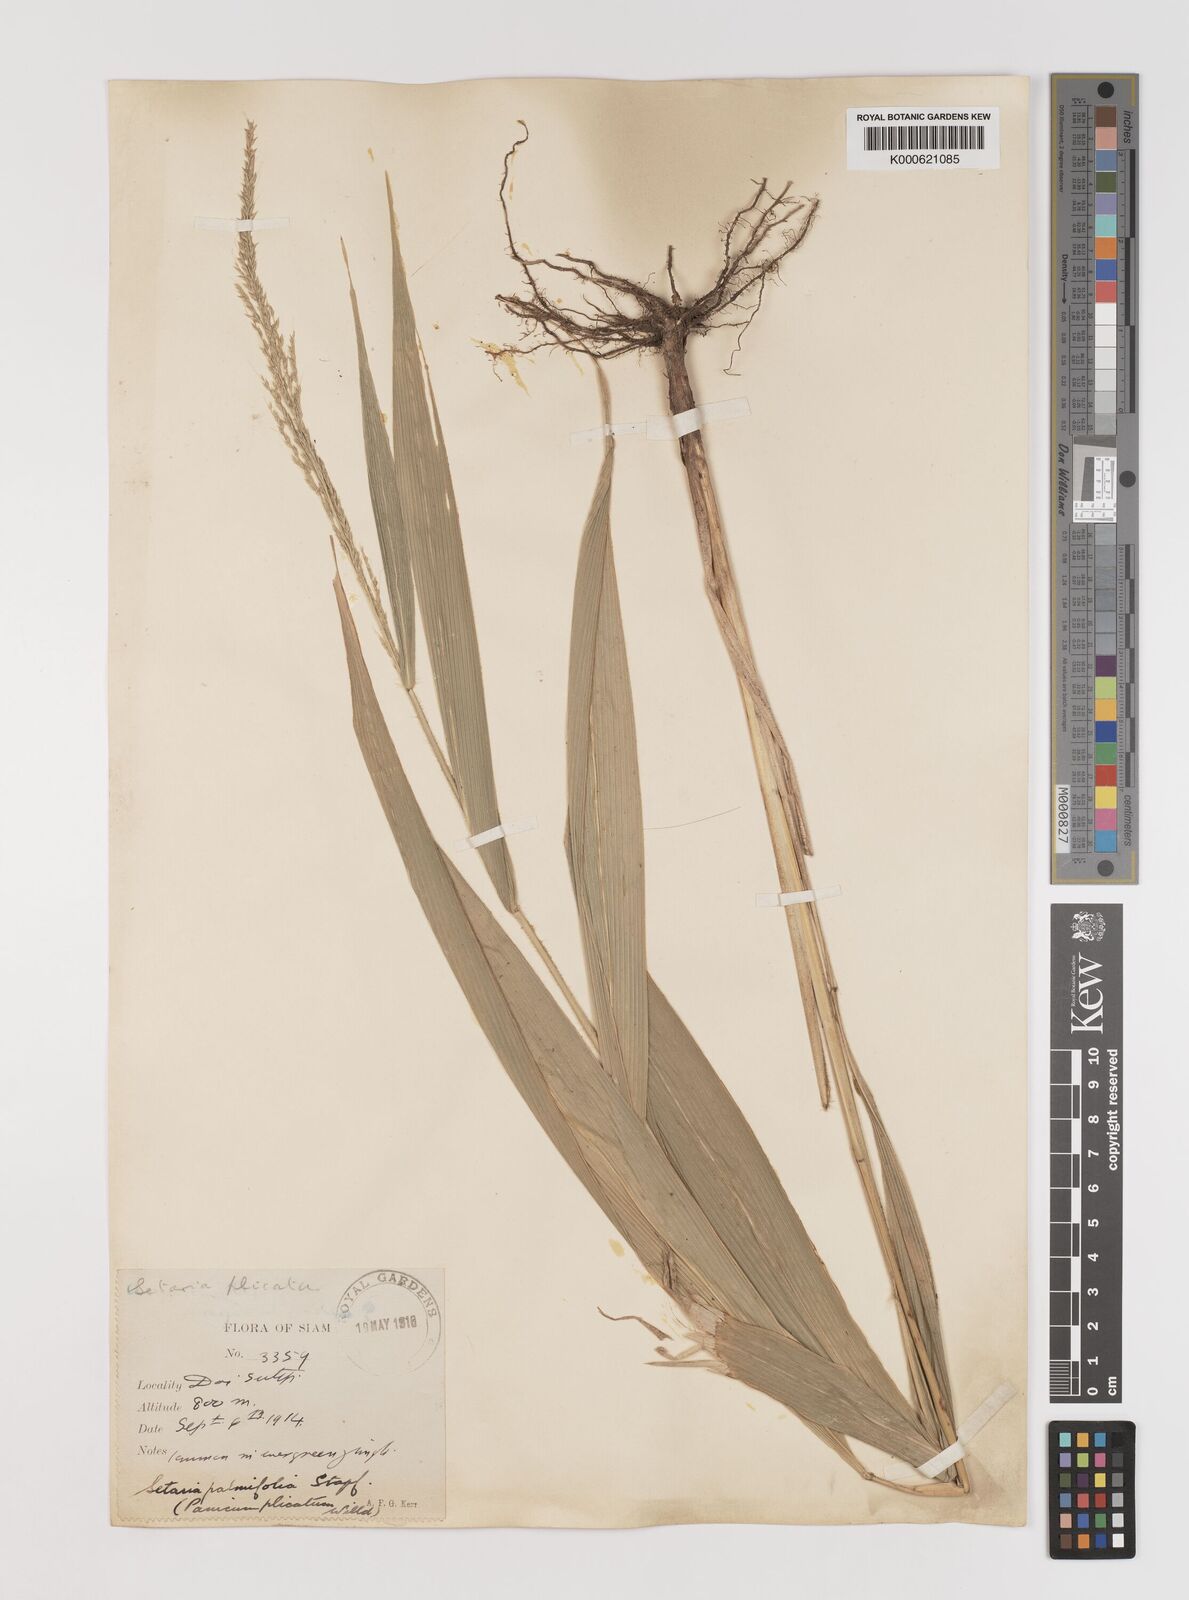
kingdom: Plantae
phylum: Tracheophyta
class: Liliopsida
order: Poales
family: Poaceae
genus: Setaria
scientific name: Setaria palmifolia
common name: Broadleaved bristlegrass
